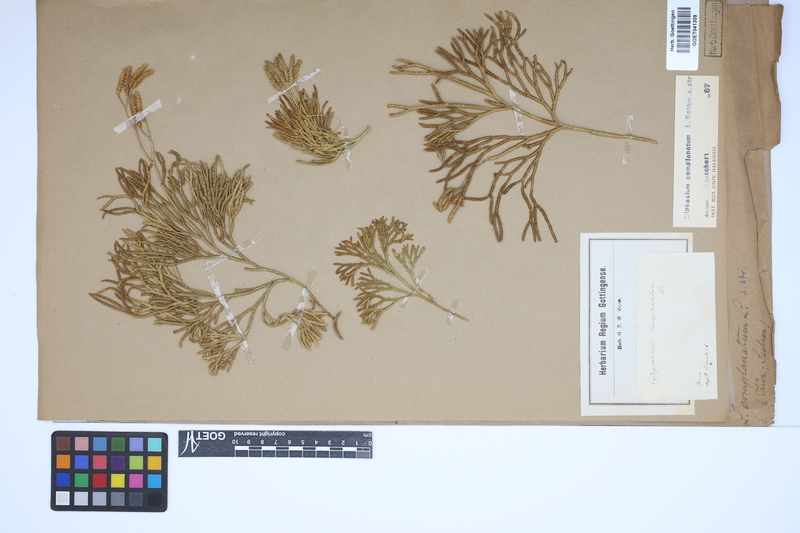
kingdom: Plantae
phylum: Tracheophyta
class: Lycopodiopsida
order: Lycopodiales
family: Lycopodiaceae
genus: Diphasiastrum
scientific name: Diphasiastrum complanatum
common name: Northern running-pine
